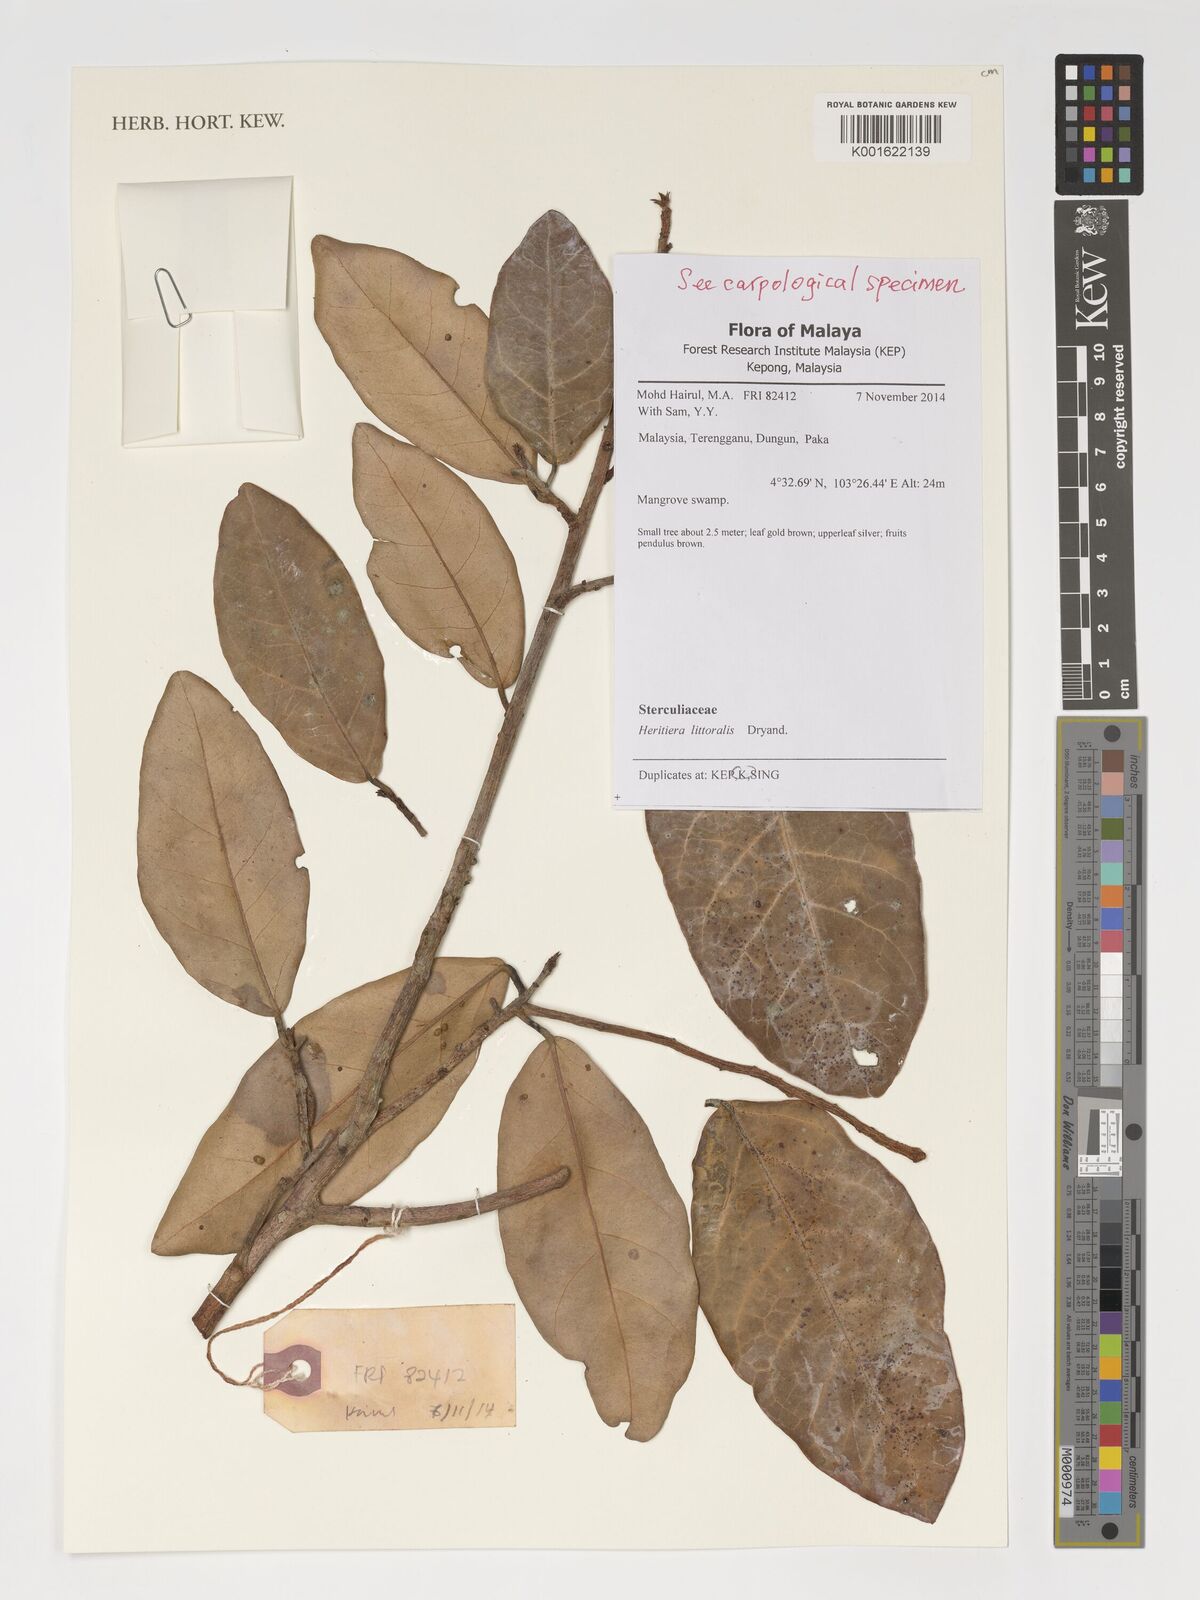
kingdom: Plantae
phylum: Tracheophyta
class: Magnoliopsida
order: Malvales
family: Malvaceae
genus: Heritiera
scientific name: Heritiera littoralis
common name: Looking-glass mangrove
